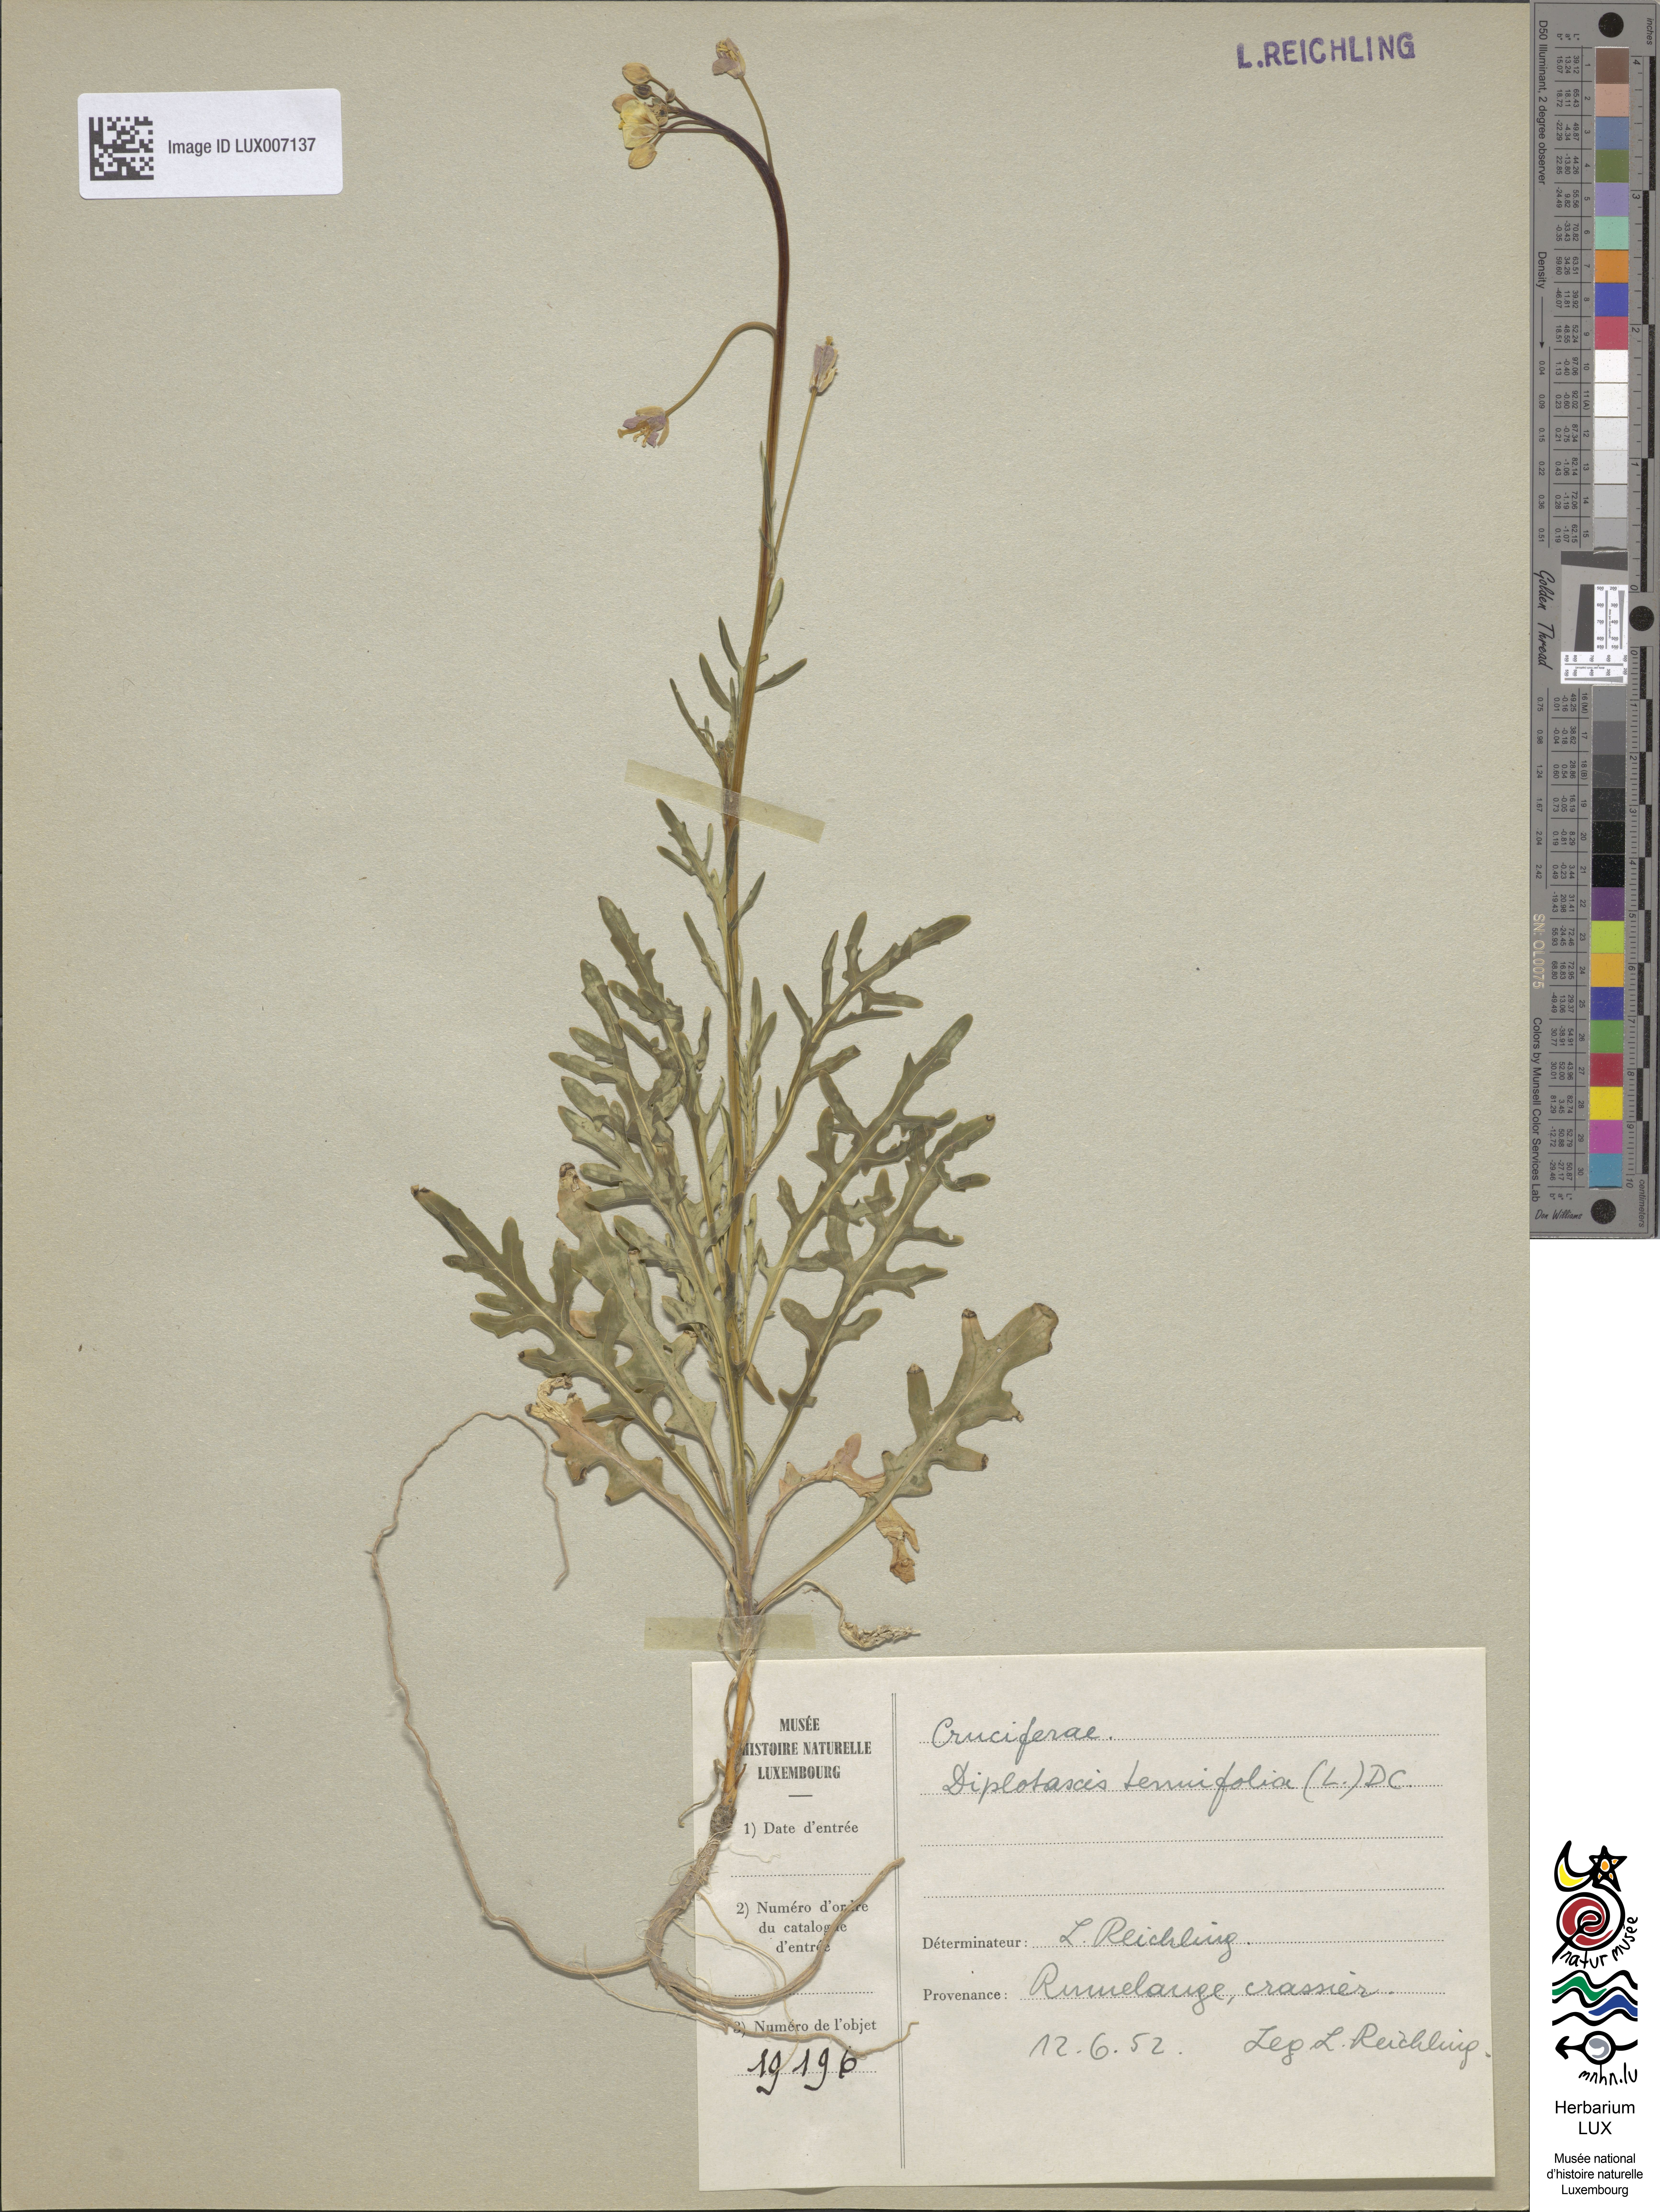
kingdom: Plantae
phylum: Tracheophyta
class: Magnoliopsida
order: Brassicales
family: Brassicaceae
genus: Diplotaxis
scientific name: Diplotaxis tenuifolia
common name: Perennial wall-rocket
